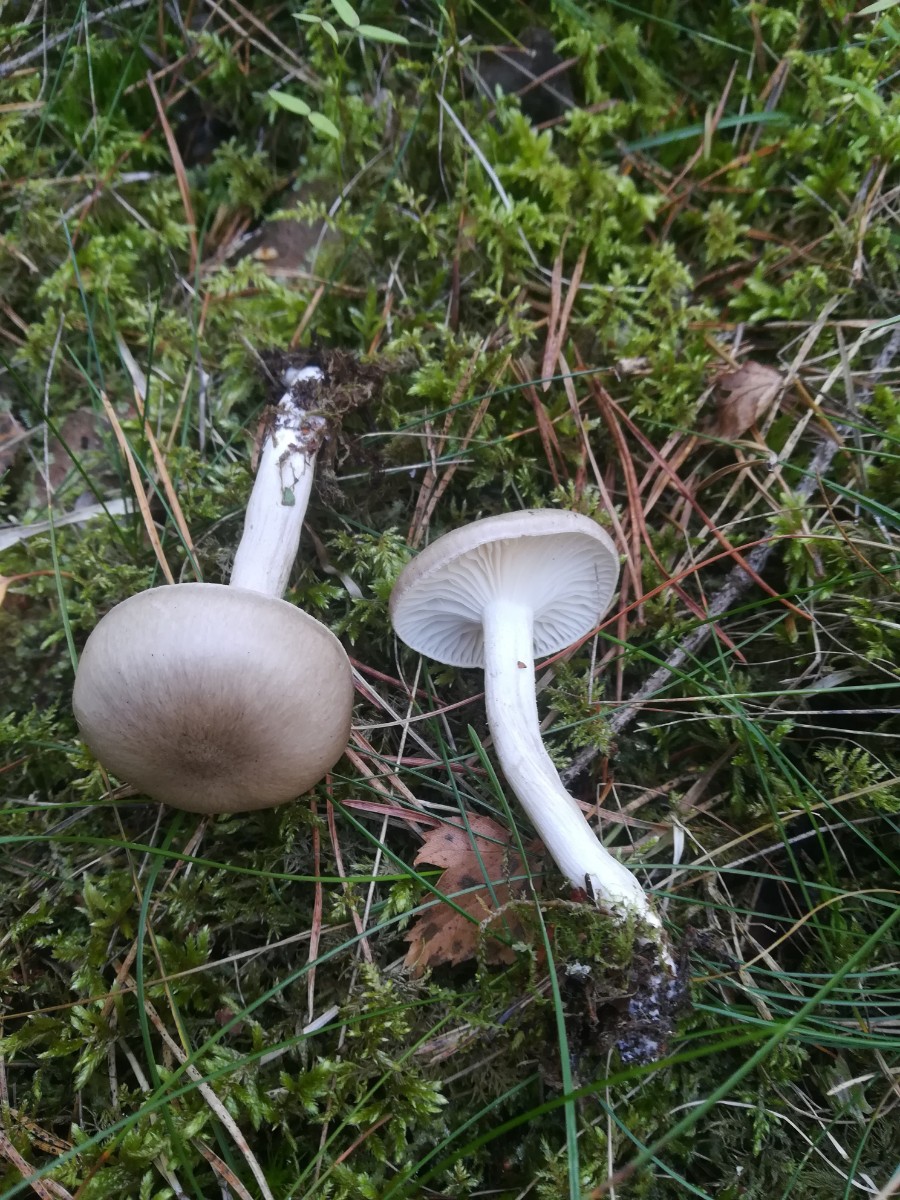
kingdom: Fungi
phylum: Basidiomycota
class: Agaricomycetes
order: Agaricales
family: Hygrophoraceae
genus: Hygrophorus
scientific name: Hygrophorus agathosmus
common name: vellugtende sneglehat
